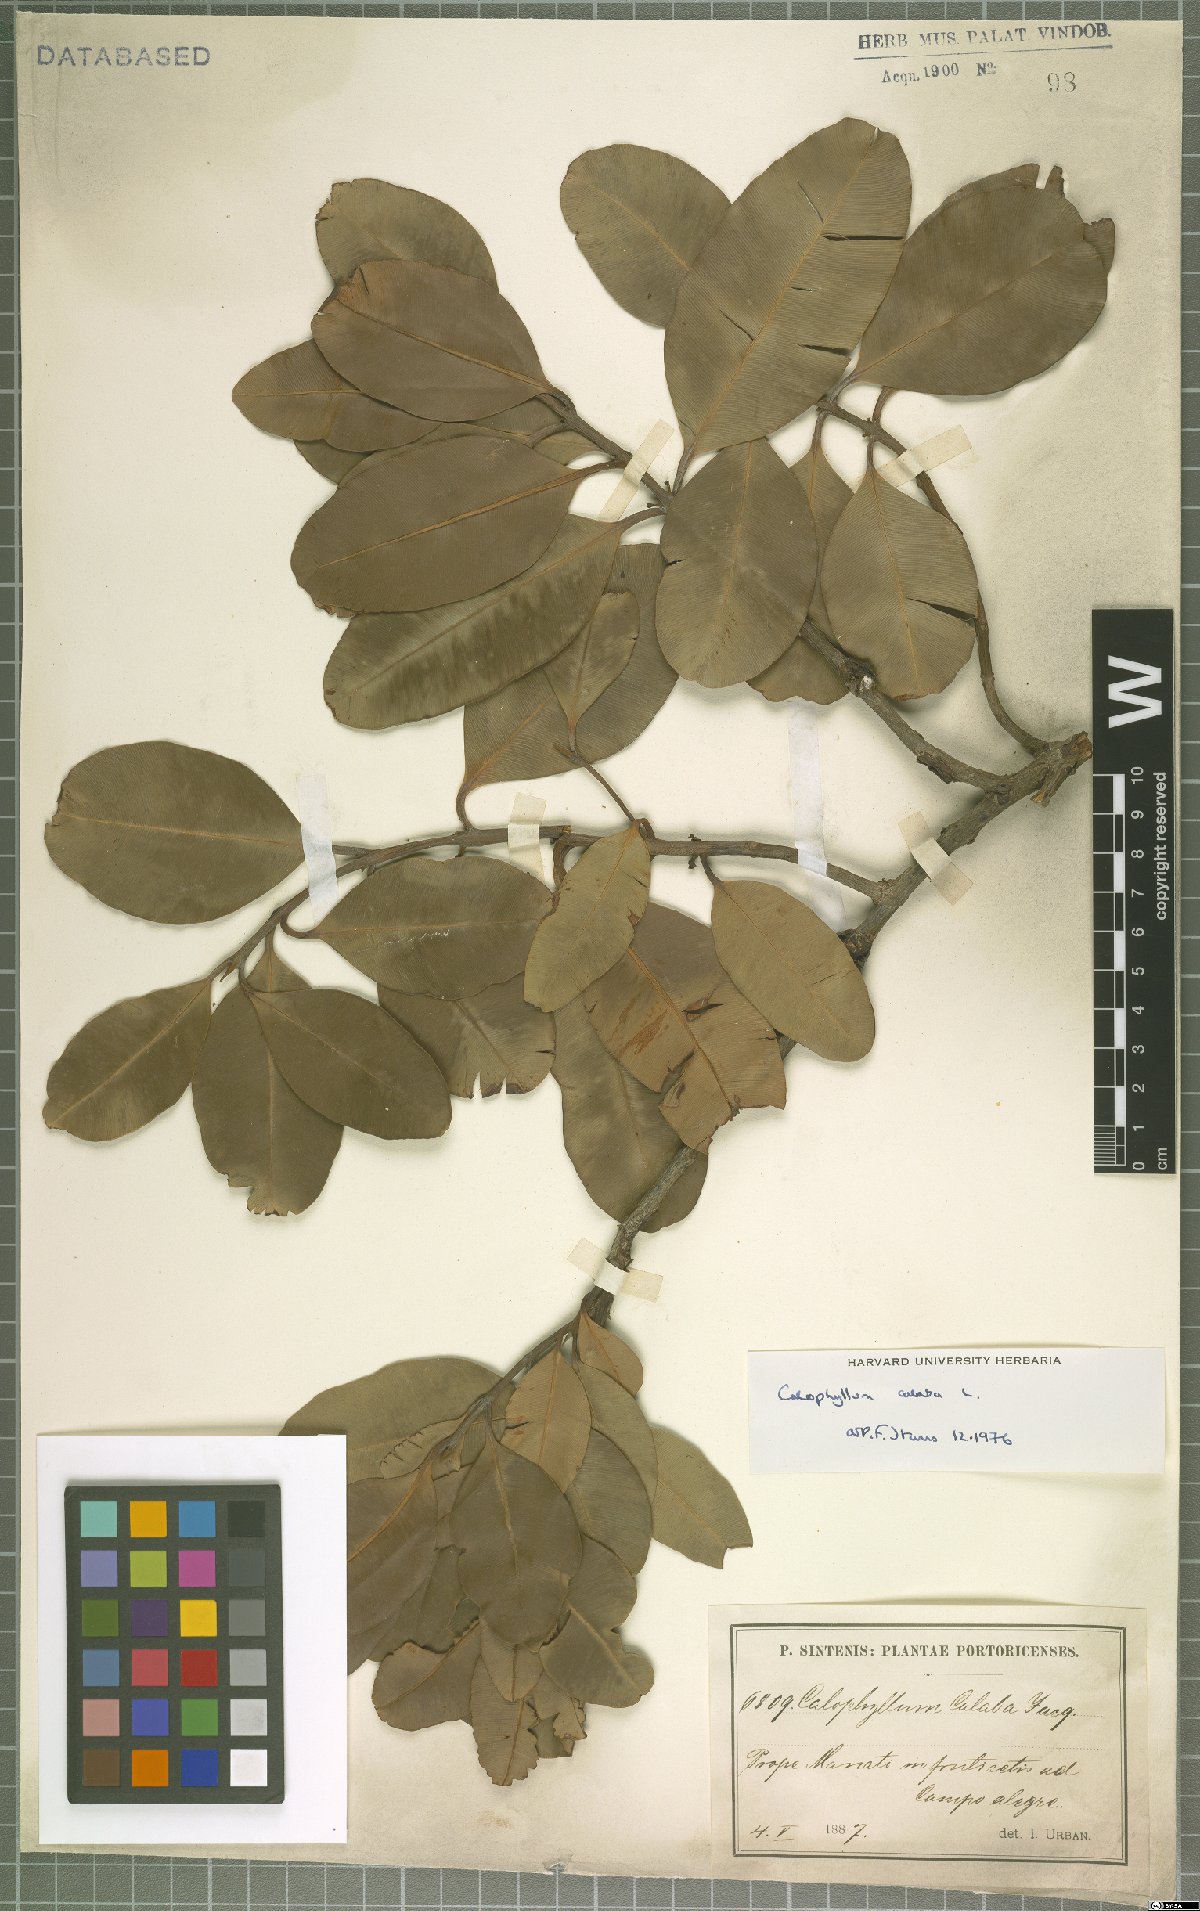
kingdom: Plantae
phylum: Tracheophyta
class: Magnoliopsida
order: Malpighiales
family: Calophyllaceae
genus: Calophyllum
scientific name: Calophyllum calaba
